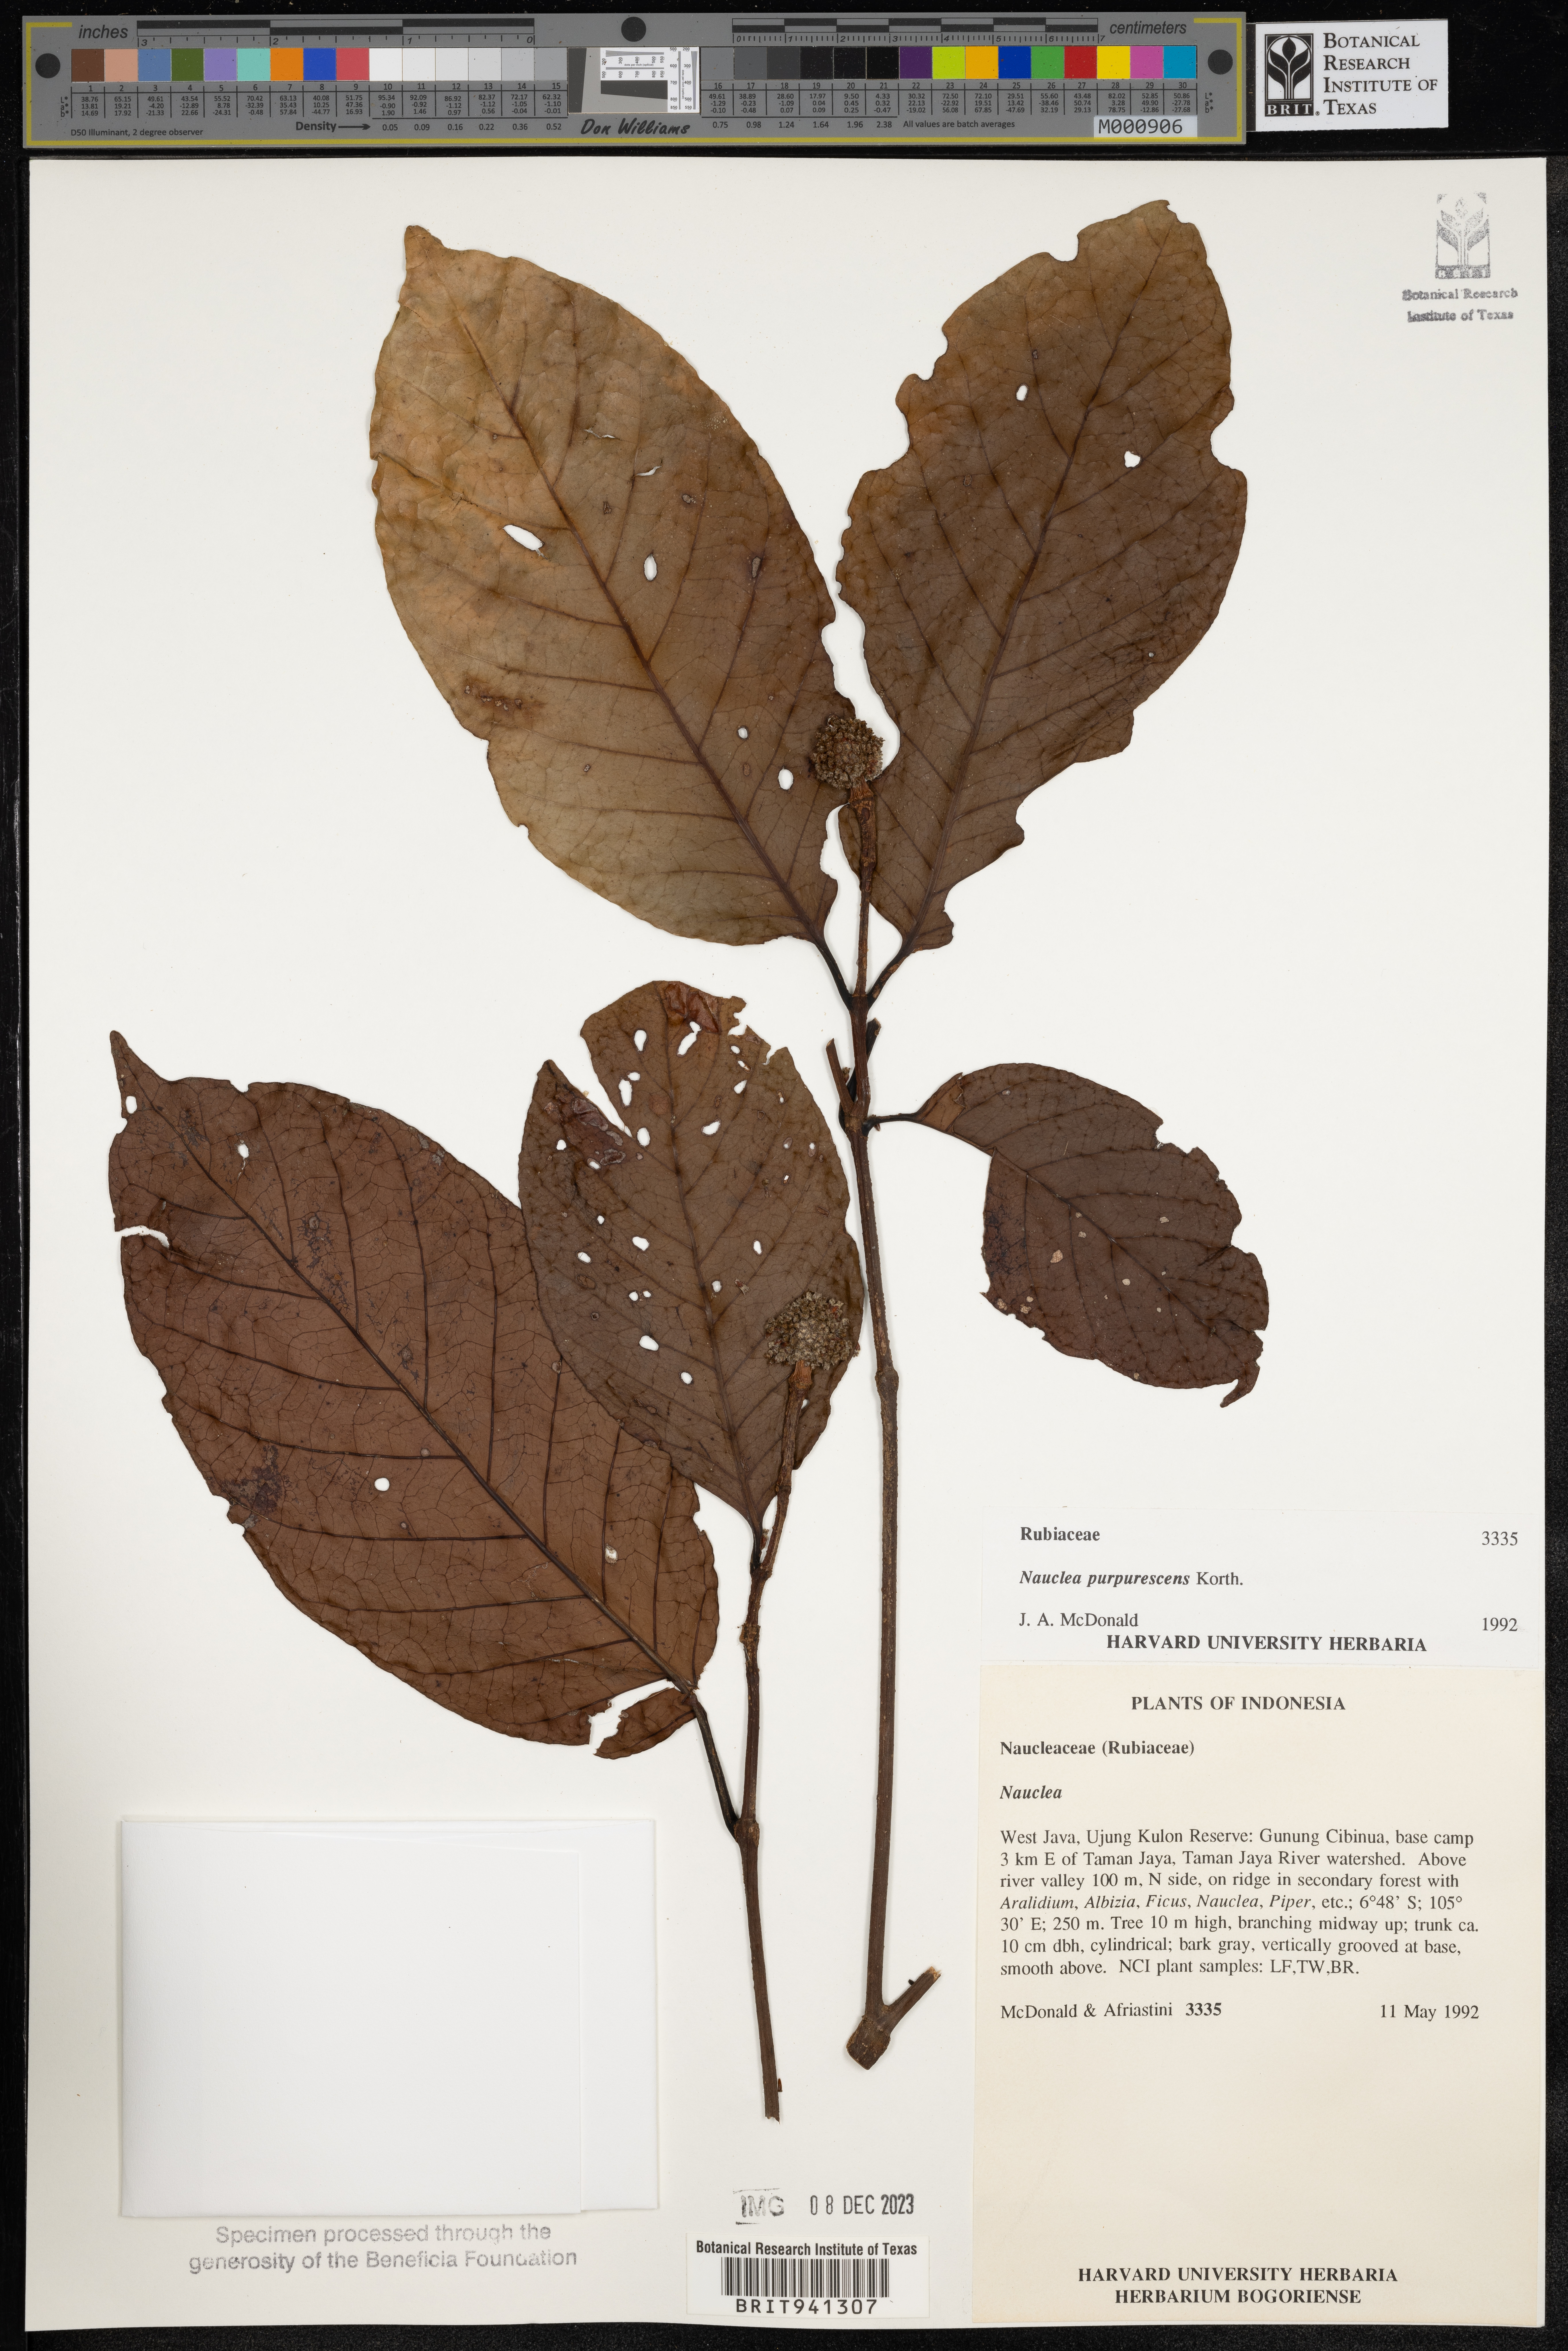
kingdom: Plantae
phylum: Tracheophyta
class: Magnoliopsida
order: Gentianales
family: Rubiaceae
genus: Nauclea
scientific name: Nauclea
